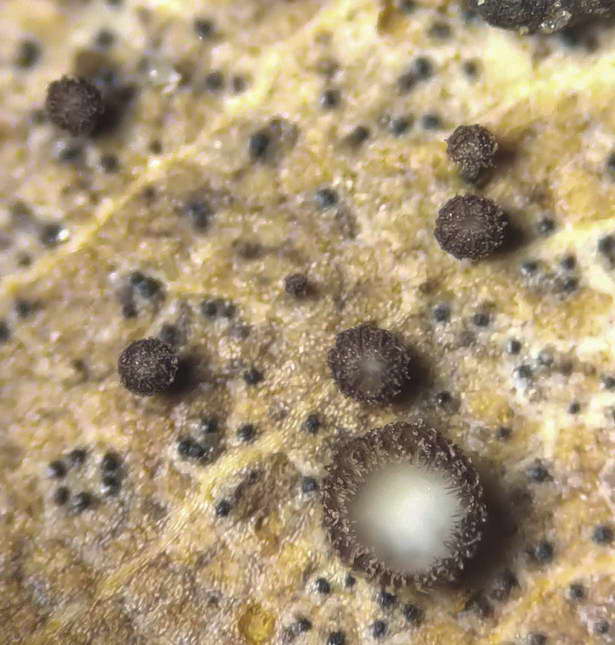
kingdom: Fungi
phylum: Ascomycota
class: Leotiomycetes
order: Helotiales
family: Lachnaceae
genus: Brunnipila
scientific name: Brunnipila brunneola
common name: læderbrun frynseskive
